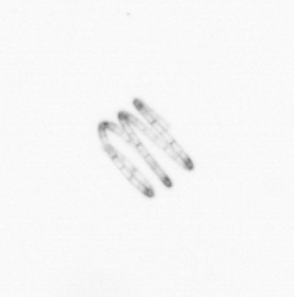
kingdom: Chromista
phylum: Ochrophyta
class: Bacillariophyceae
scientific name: Bacillariophyceae
